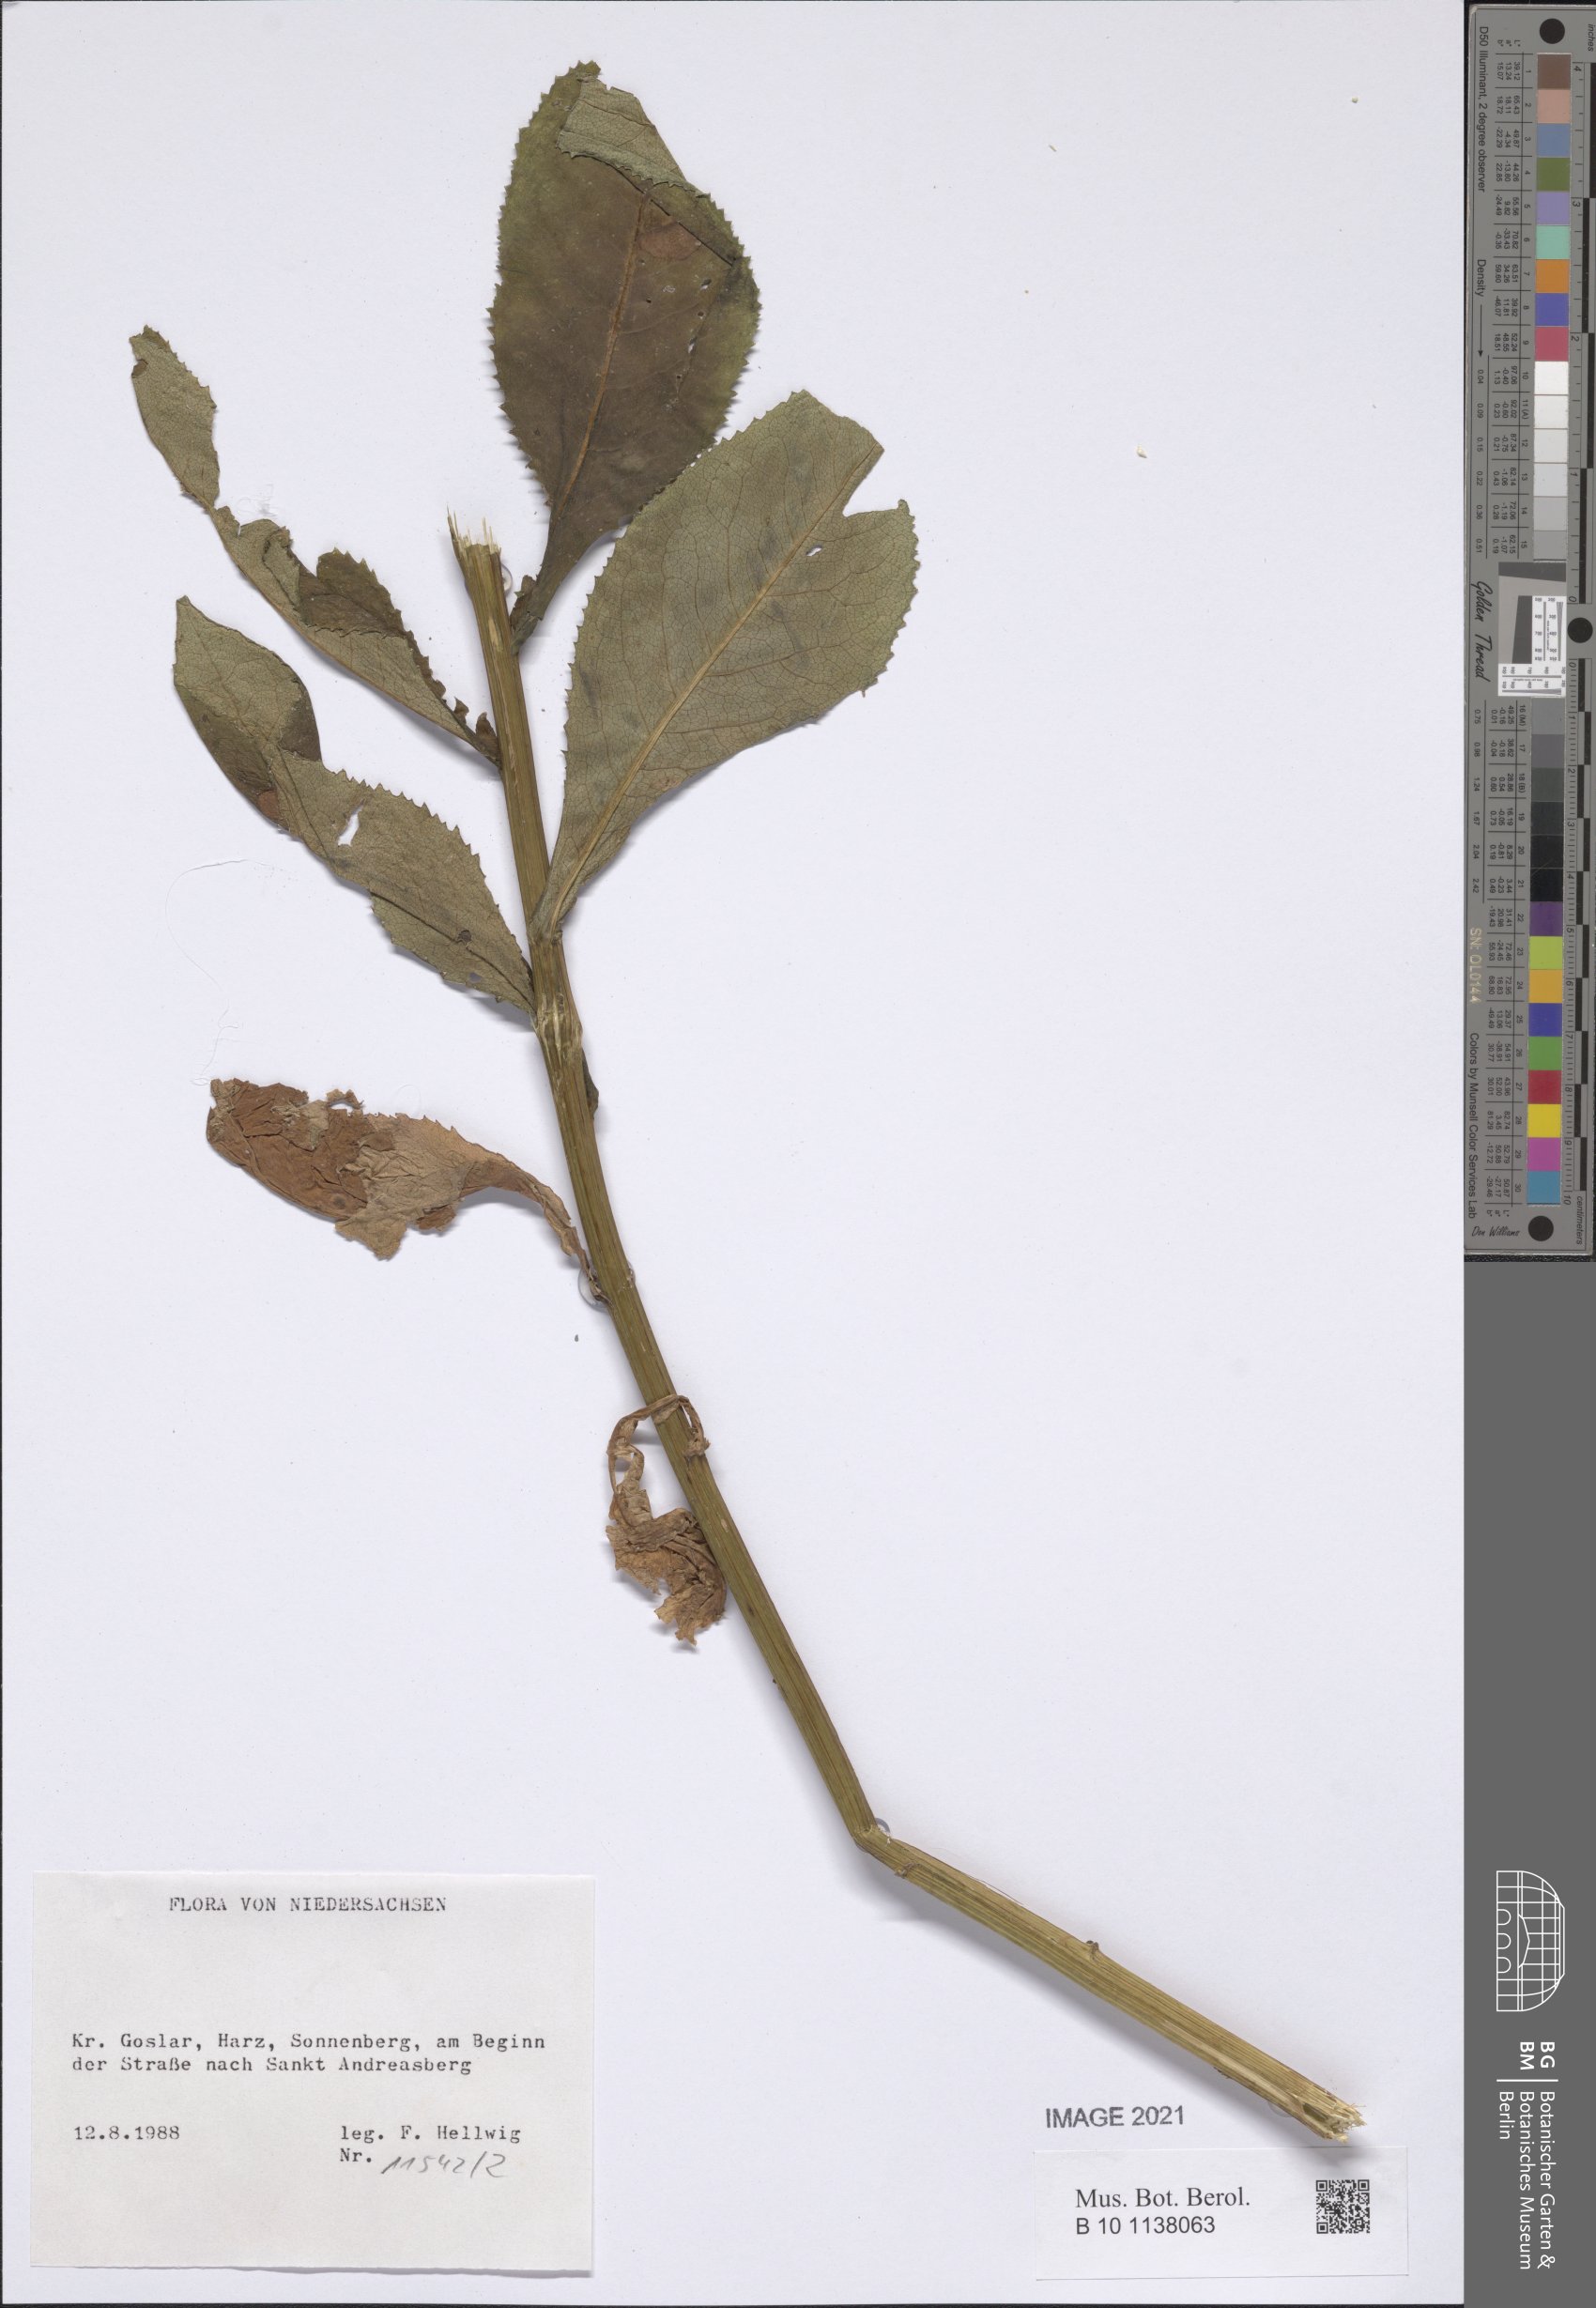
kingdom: Plantae
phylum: Tracheophyta
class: Magnoliopsida
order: Asterales
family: Asteraceae
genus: Senecio
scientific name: Senecio hercynicus
